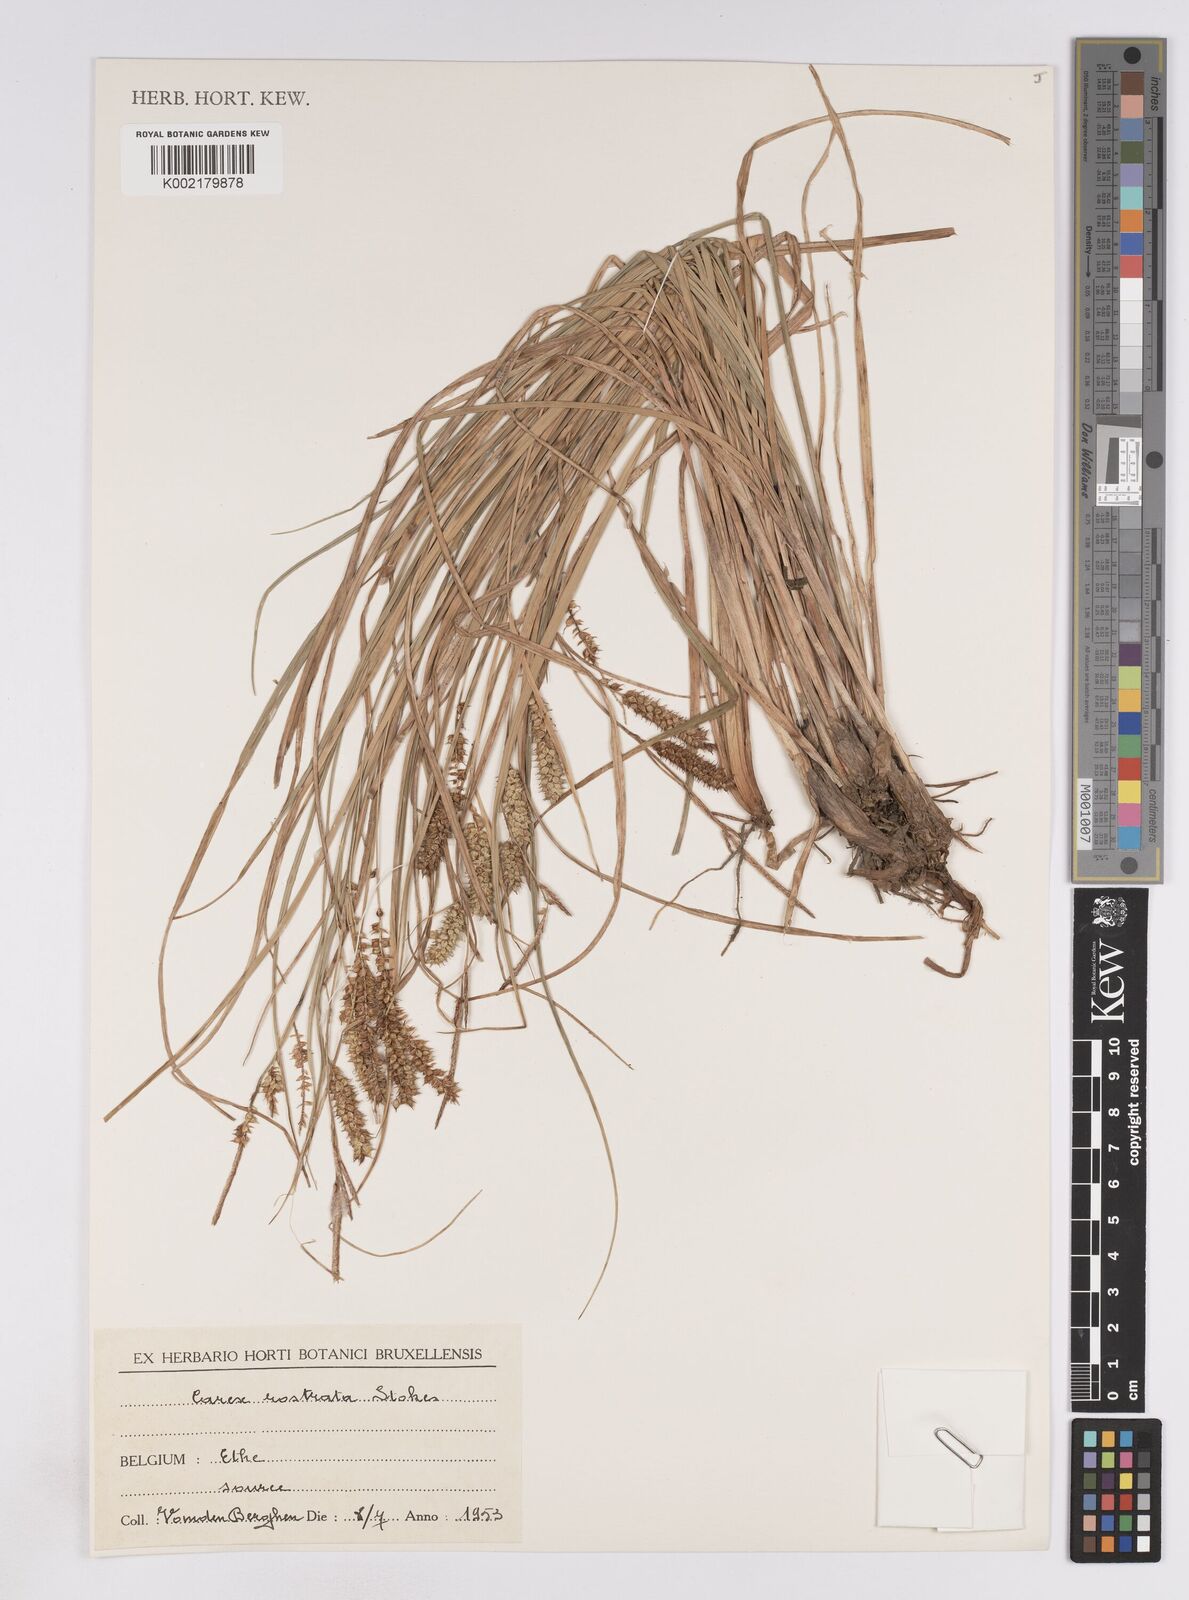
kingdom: Plantae
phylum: Tracheophyta
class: Liliopsida
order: Poales
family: Cyperaceae
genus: Carex
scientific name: Carex rostrata
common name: Bottle sedge
